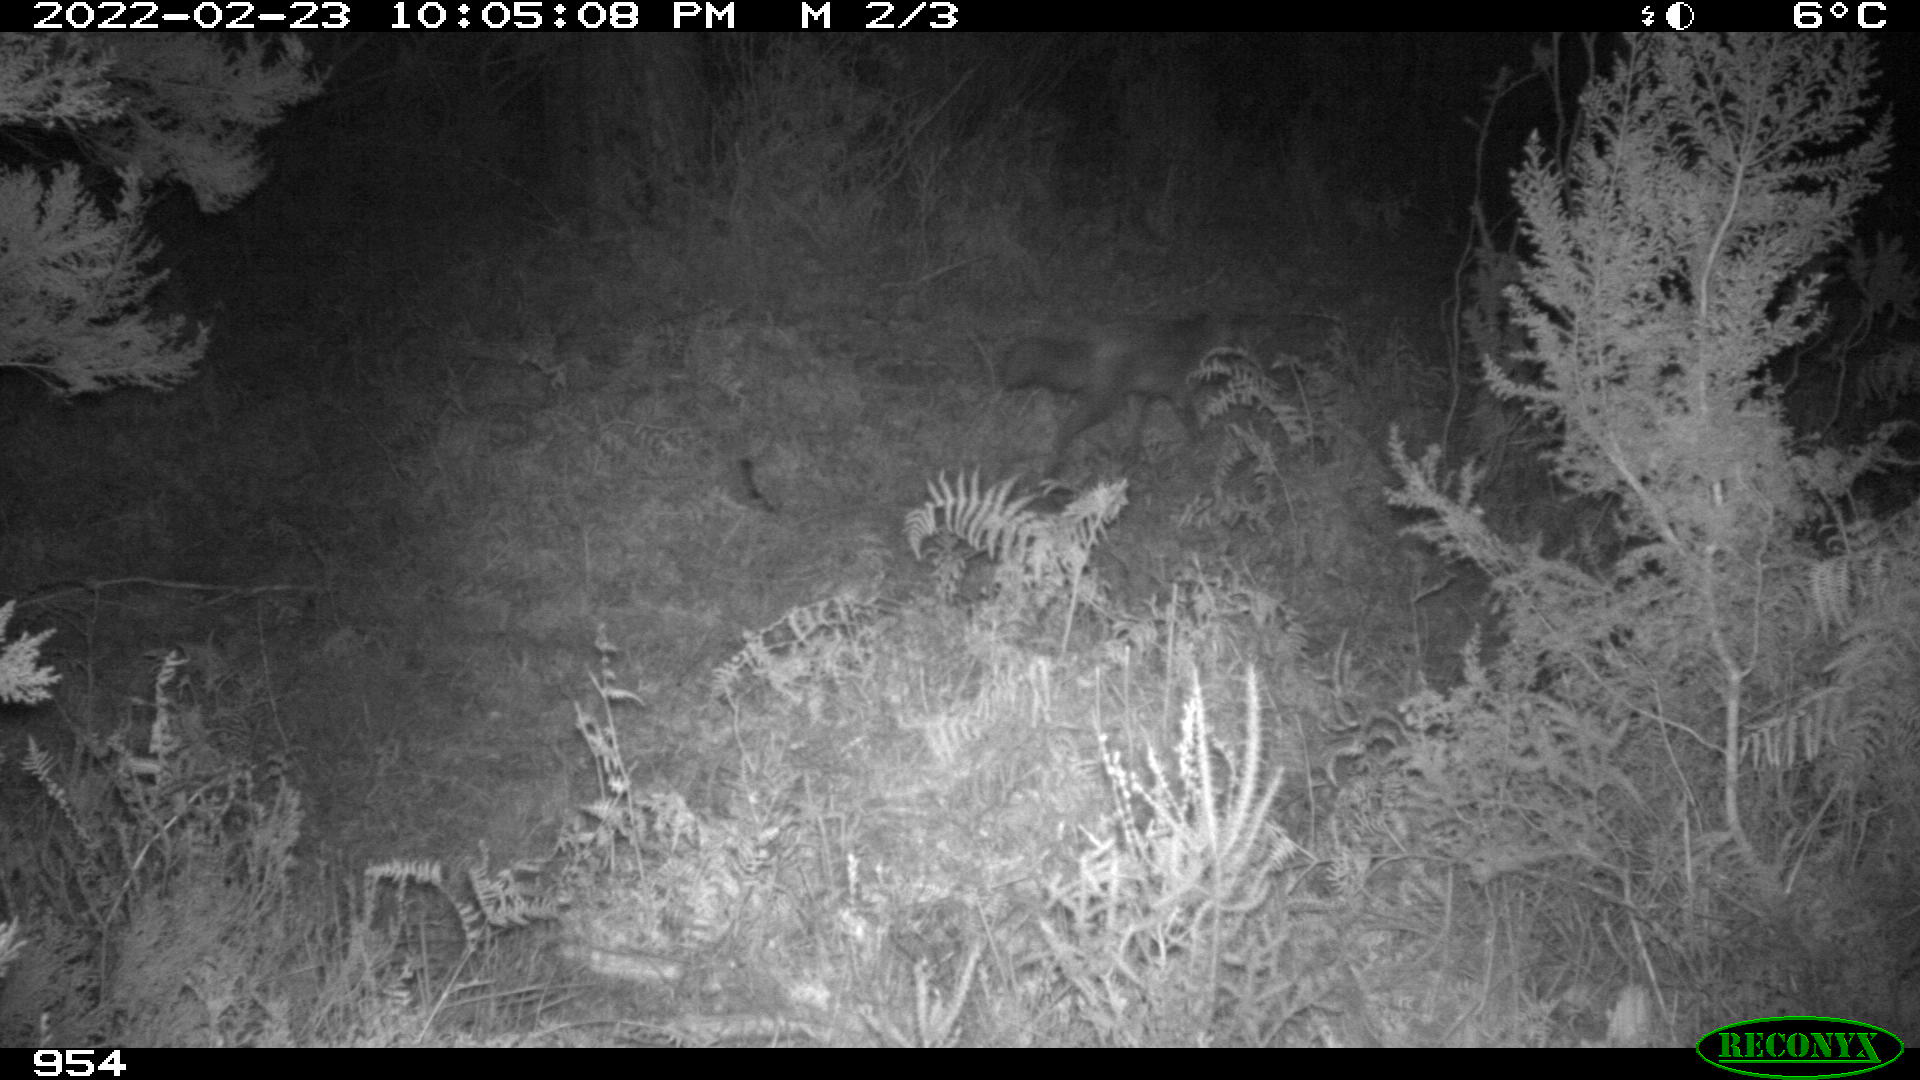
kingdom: Animalia
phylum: Chordata
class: Mammalia
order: Carnivora
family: Canidae
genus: Vulpes
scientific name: Vulpes vulpes
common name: Red fox
